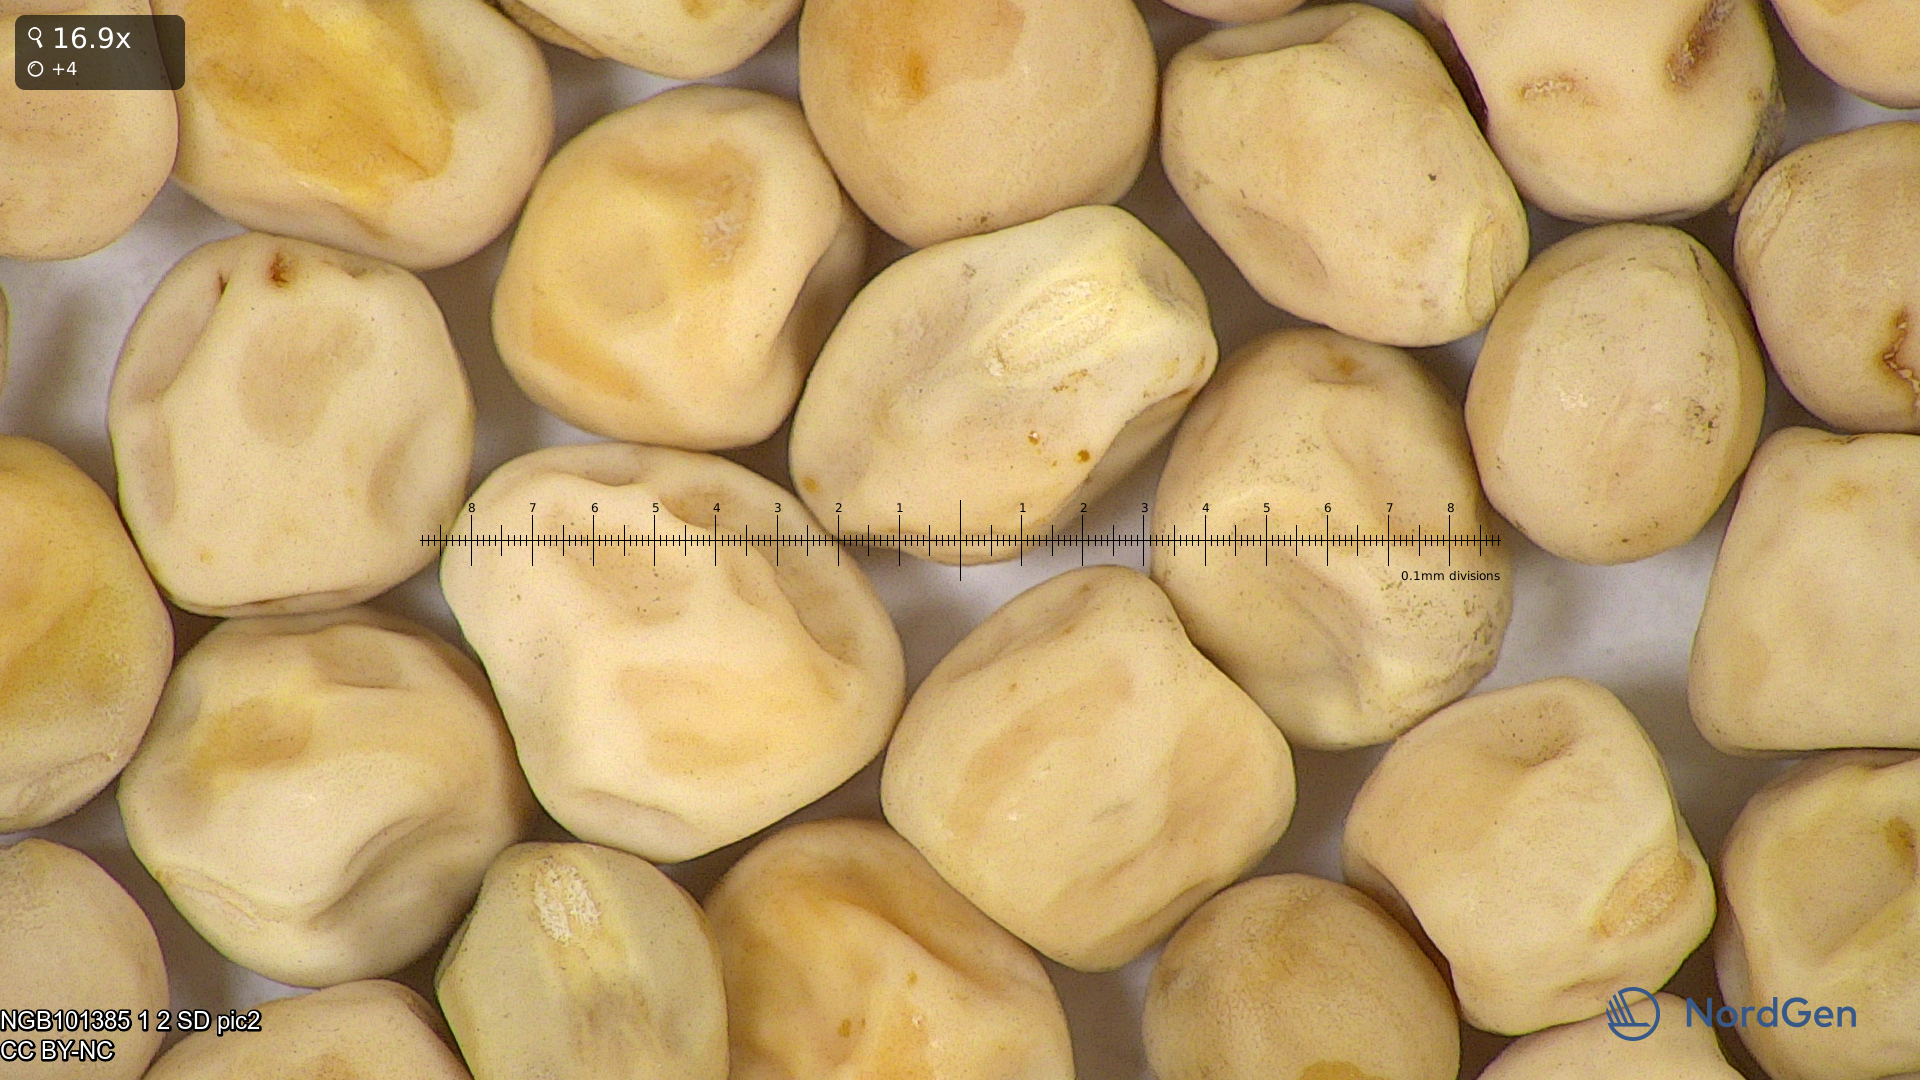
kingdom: Plantae
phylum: Tracheophyta
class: Magnoliopsida
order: Fabales
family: Fabaceae
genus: Lathyrus
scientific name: Lathyrus oleraceus
